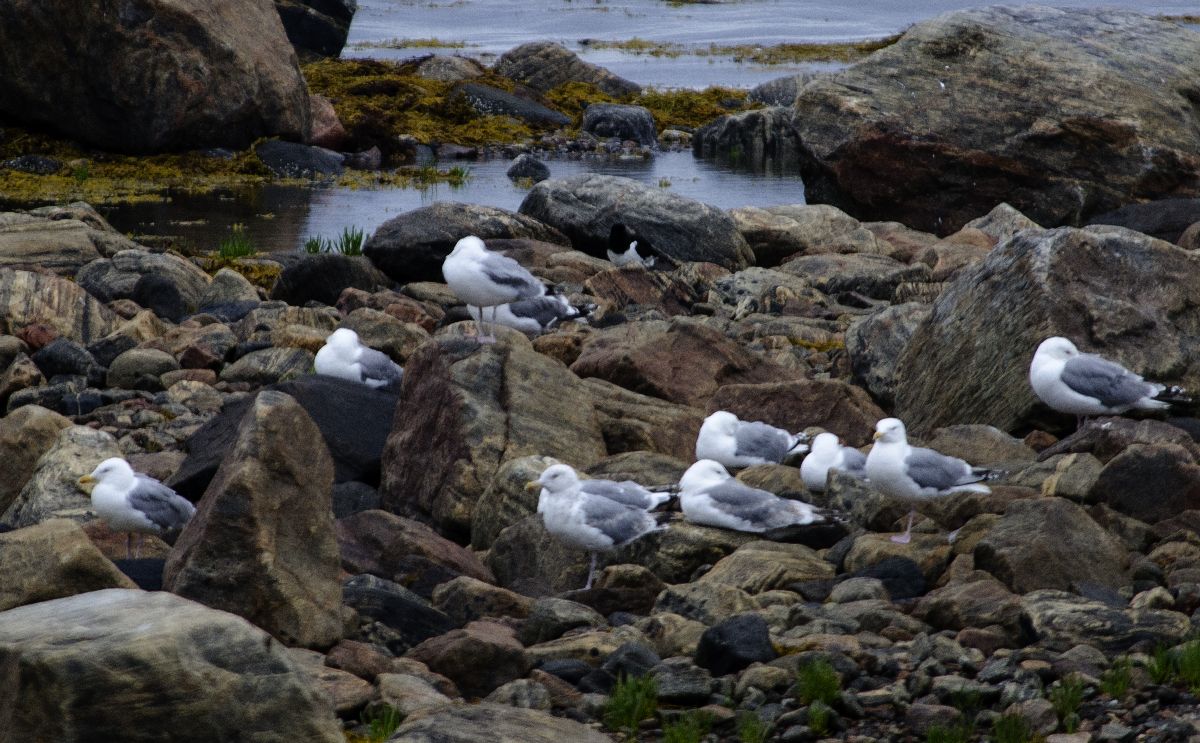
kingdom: Animalia
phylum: Chordata
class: Aves
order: Charadriiformes
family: Laridae
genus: Larus
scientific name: Larus argentatus
